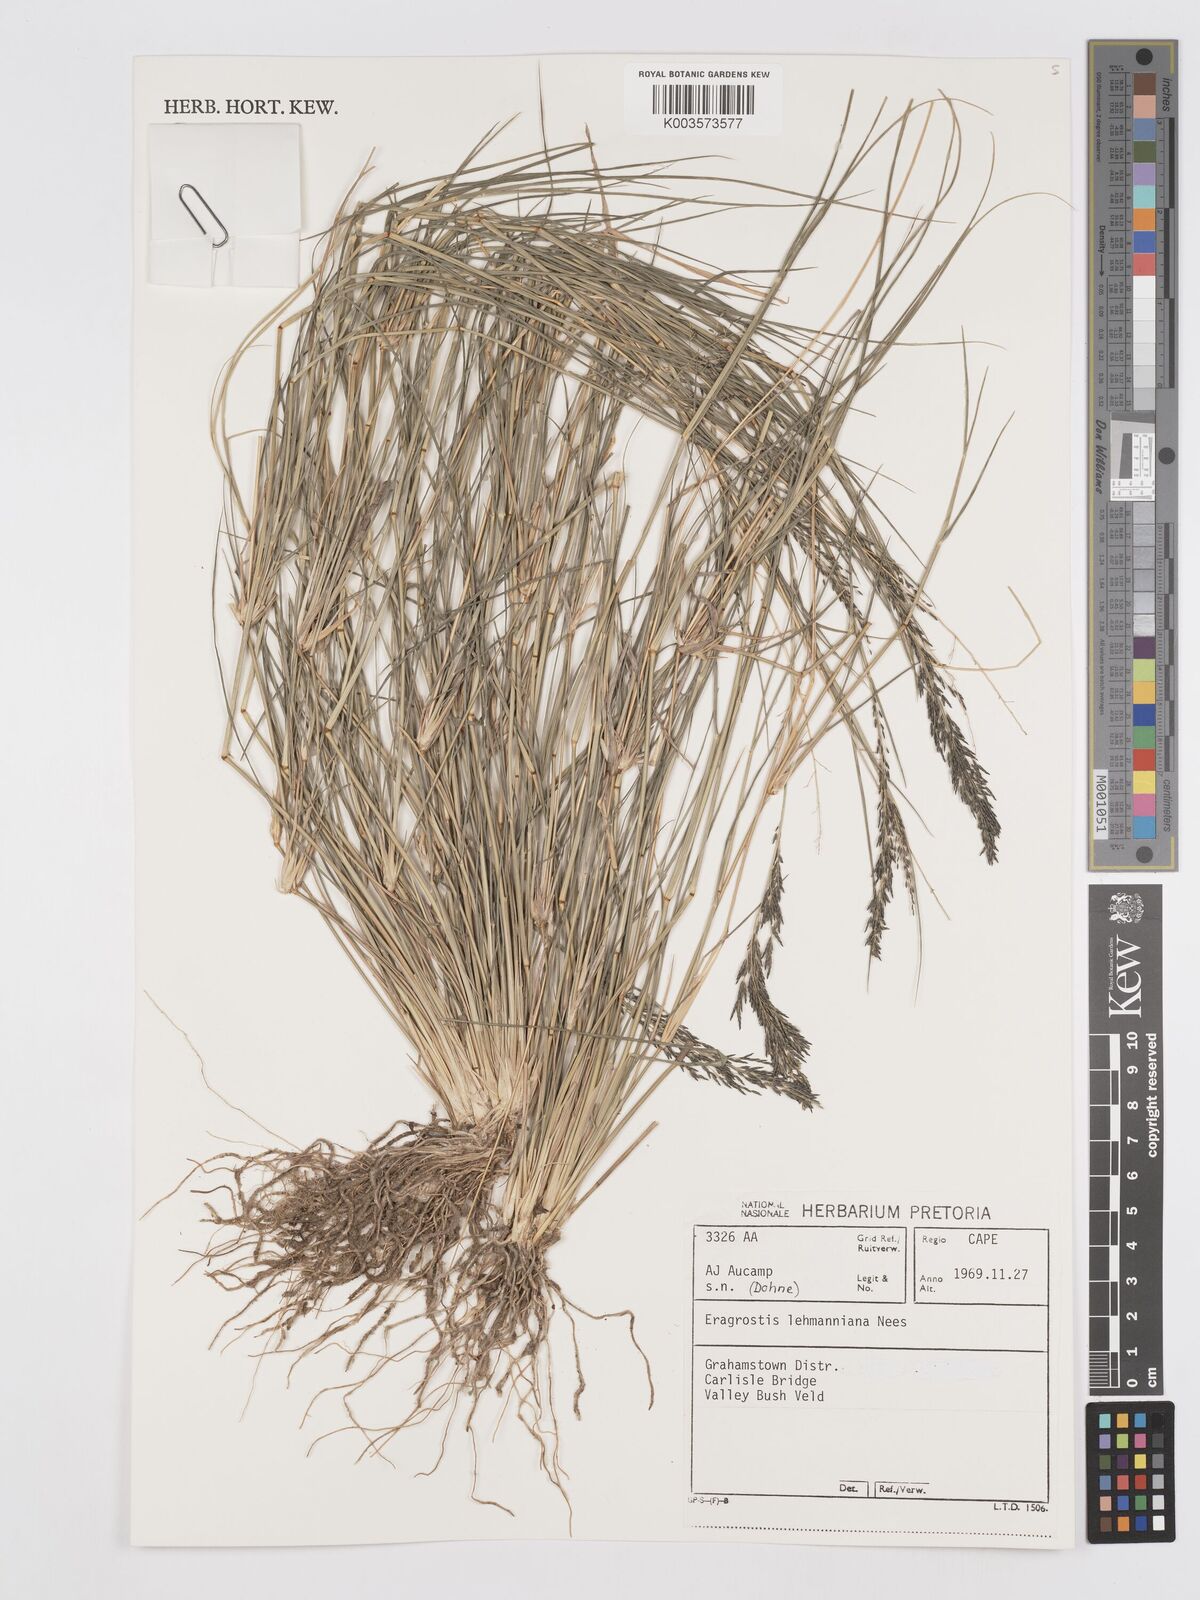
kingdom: Plantae
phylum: Tracheophyta
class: Liliopsida
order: Poales
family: Poaceae
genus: Eragrostis
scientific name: Eragrostis lehmanniana
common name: Lehmann lovegrass
